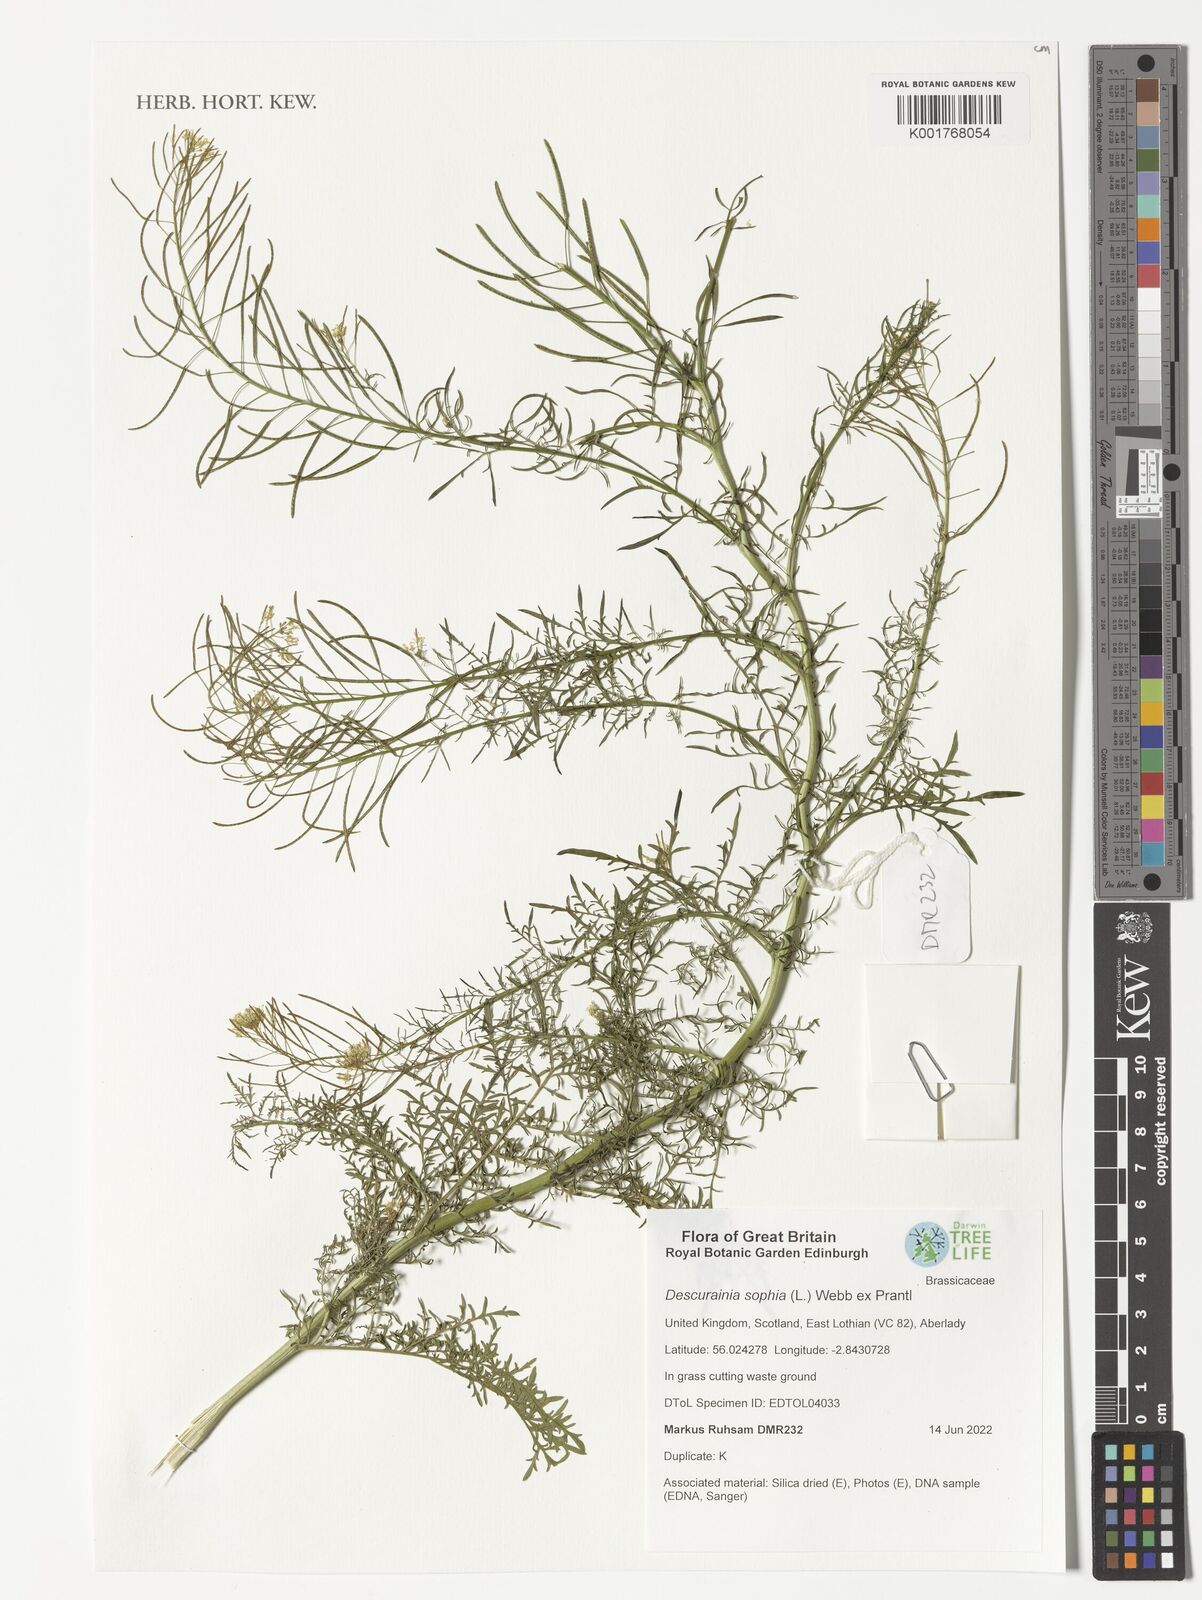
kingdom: Plantae
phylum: Tracheophyta
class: Magnoliopsida
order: Brassicales
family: Brassicaceae
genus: Descurainia
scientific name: Descurainia sophia
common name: Flixweed
